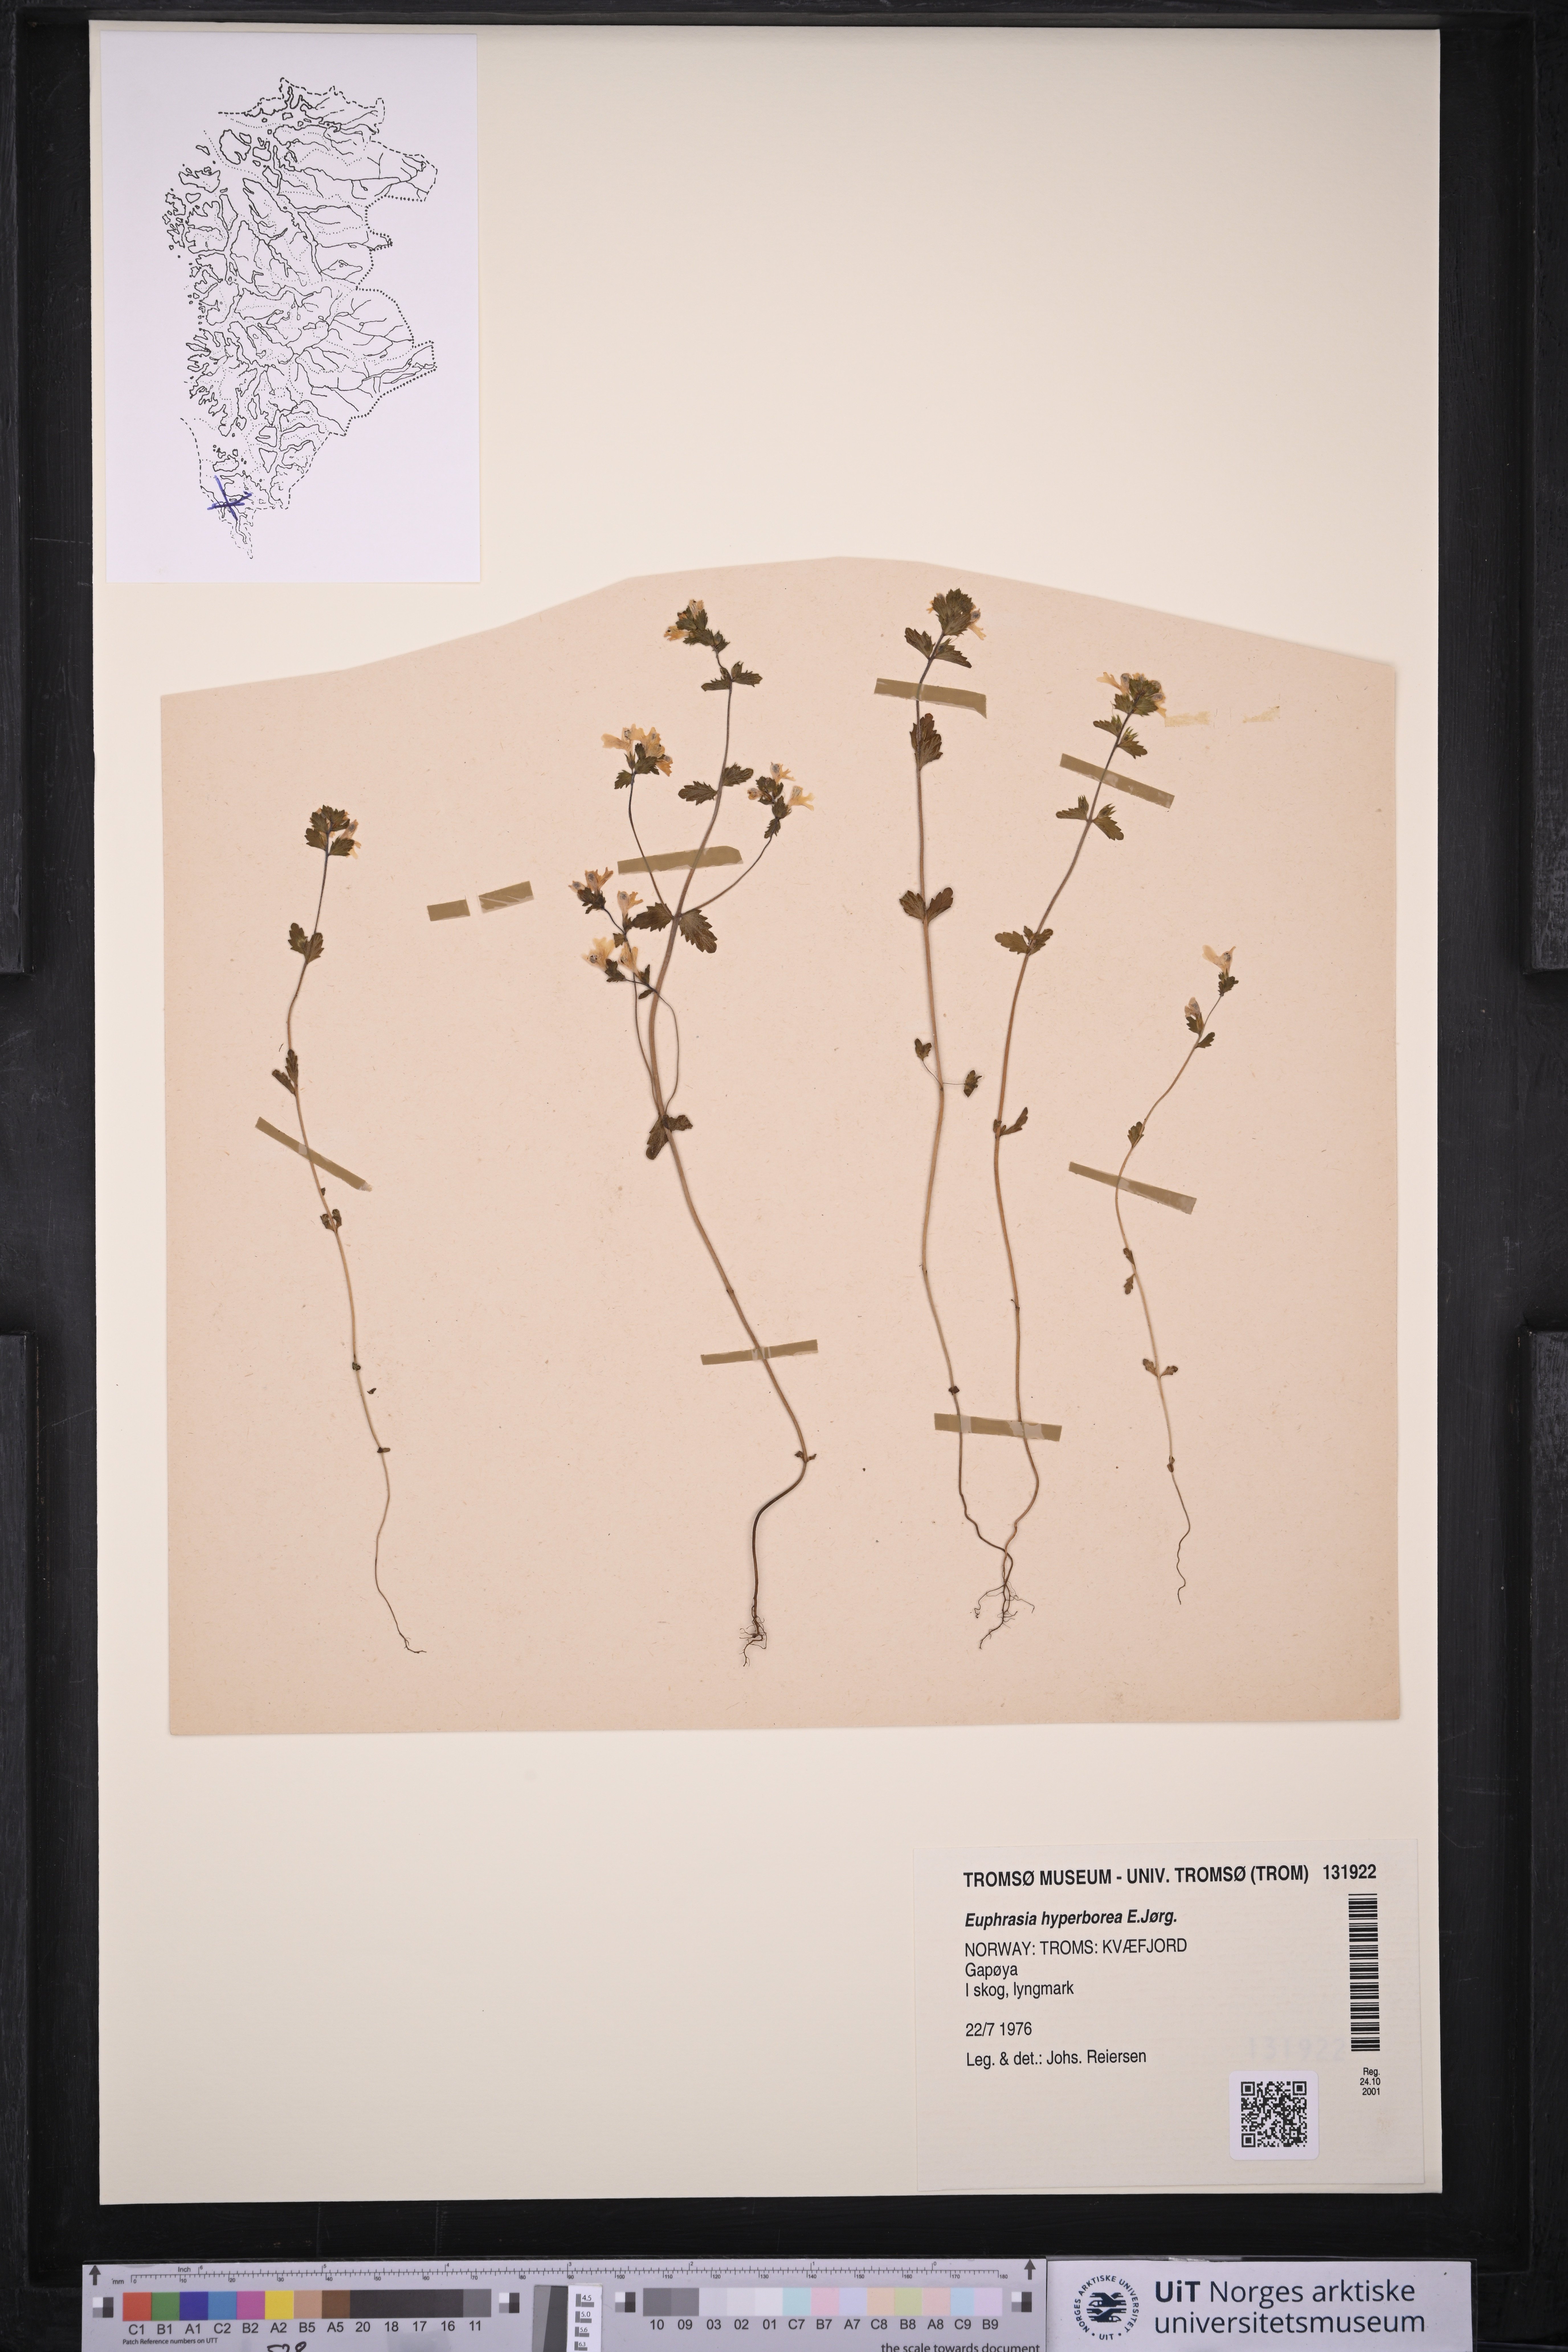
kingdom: Plantae
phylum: Tracheophyta
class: Magnoliopsida
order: Lamiales
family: Orobanchaceae
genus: Euphrasia
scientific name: Euphrasia hyperborea
